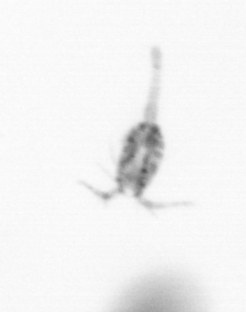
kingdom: Animalia
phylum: Arthropoda
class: Copepoda
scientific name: Copepoda
